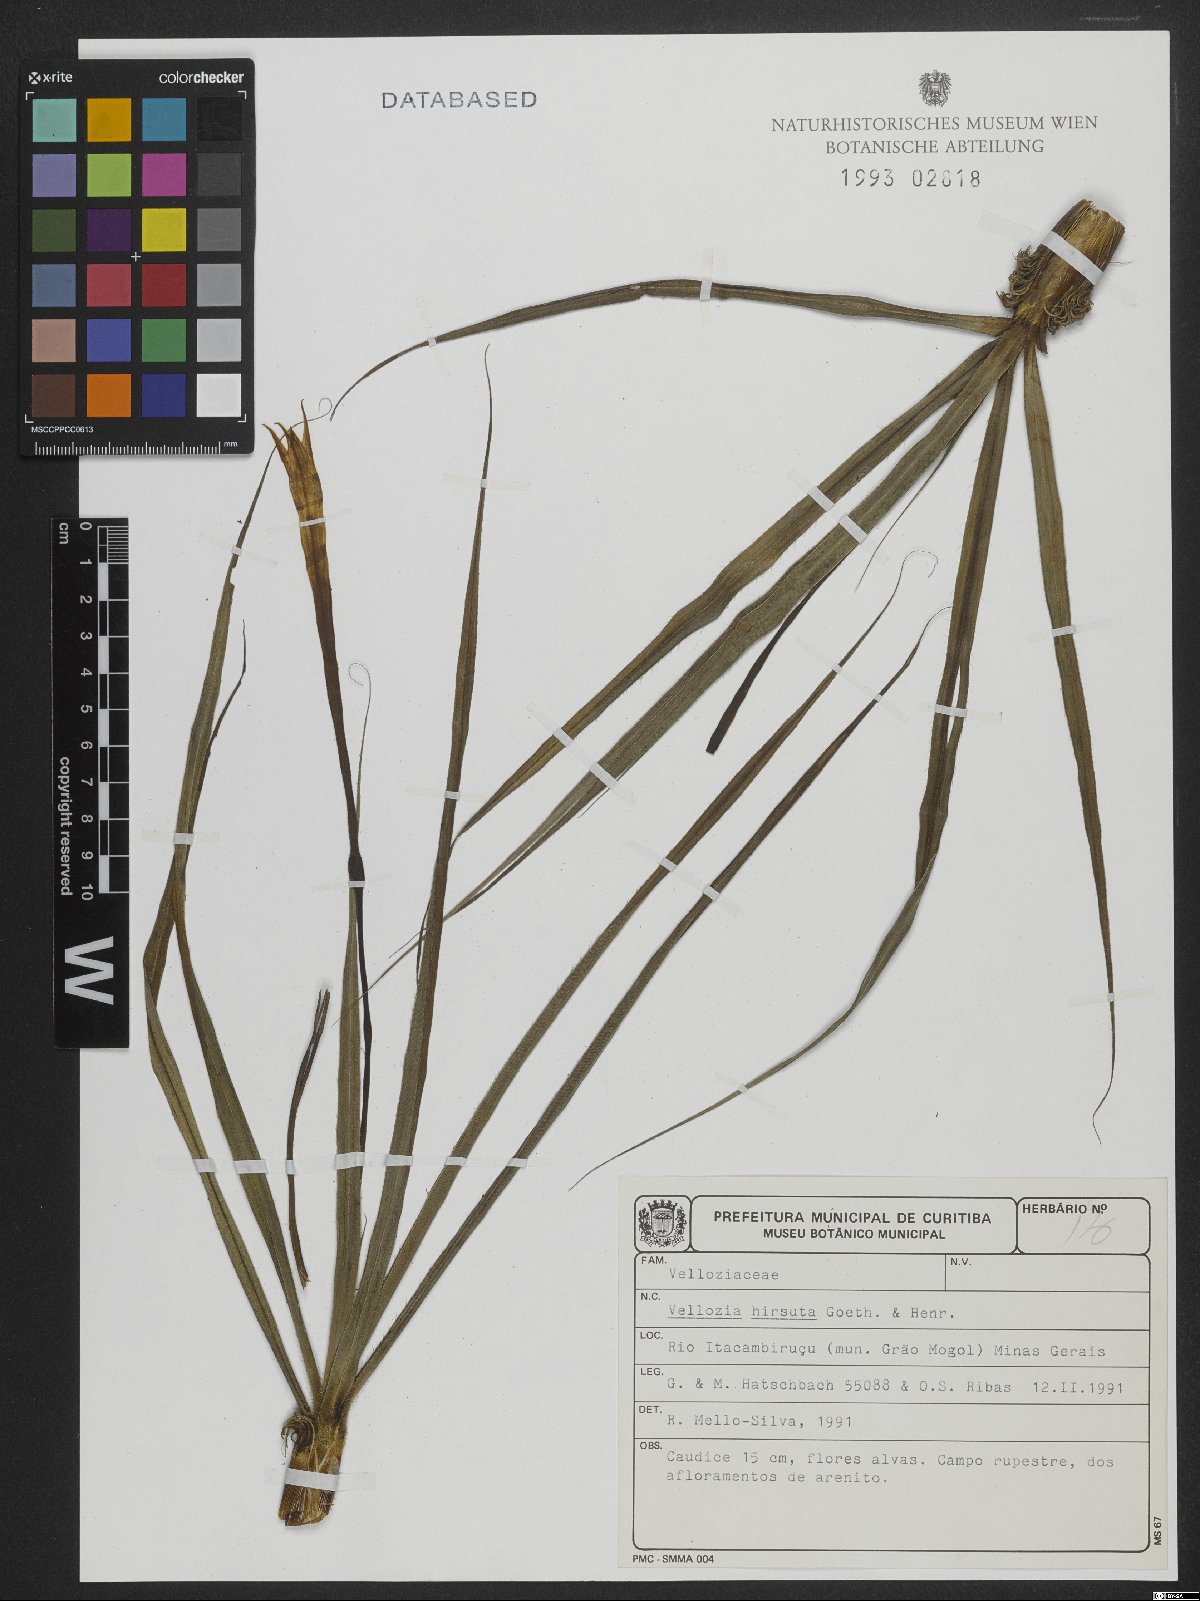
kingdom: Plantae
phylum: Tracheophyta
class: Liliopsida
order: Pandanales
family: Velloziaceae
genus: Vellozia
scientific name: Vellozia hirsuta
